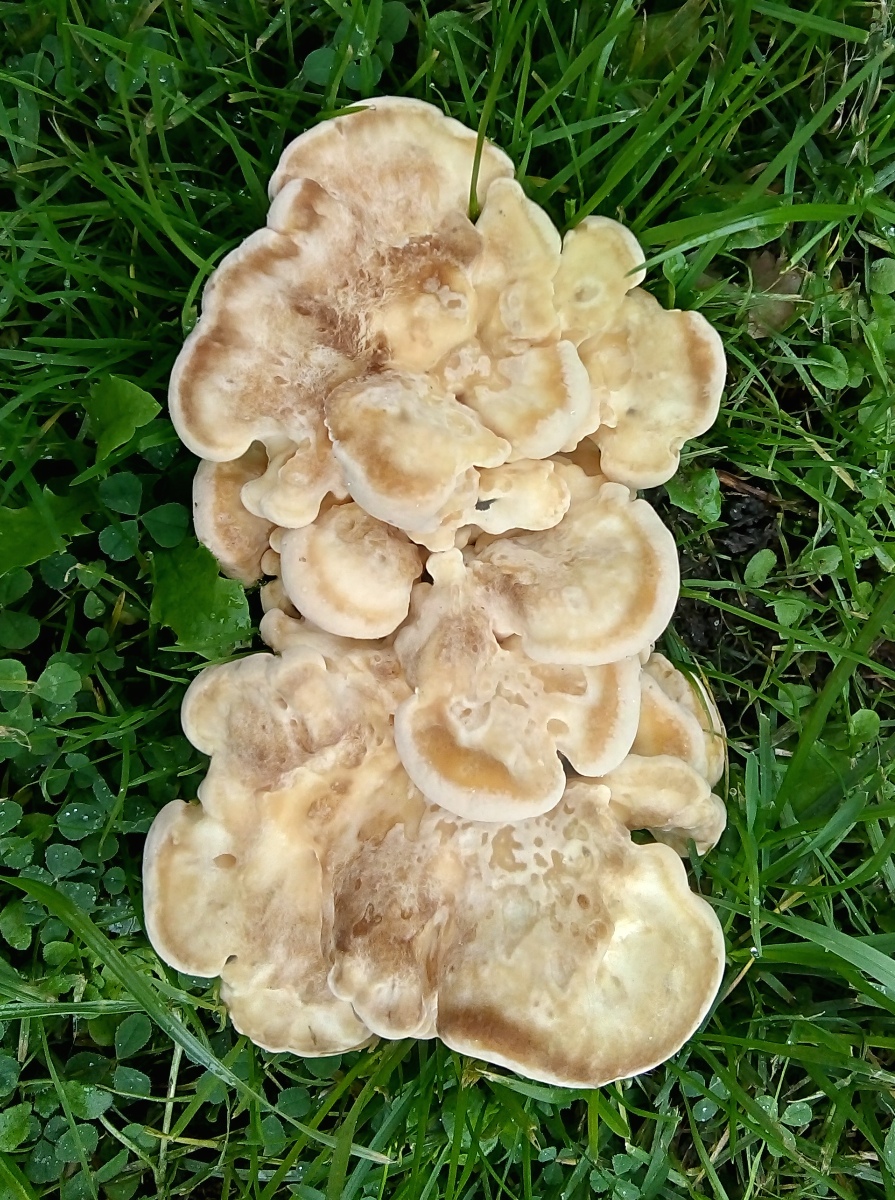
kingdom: Fungi
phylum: Basidiomycota
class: Agaricomycetes
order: Polyporales
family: Meripilaceae
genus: Meripilus
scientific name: Meripilus giganteus
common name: kæmpeporesvamp
